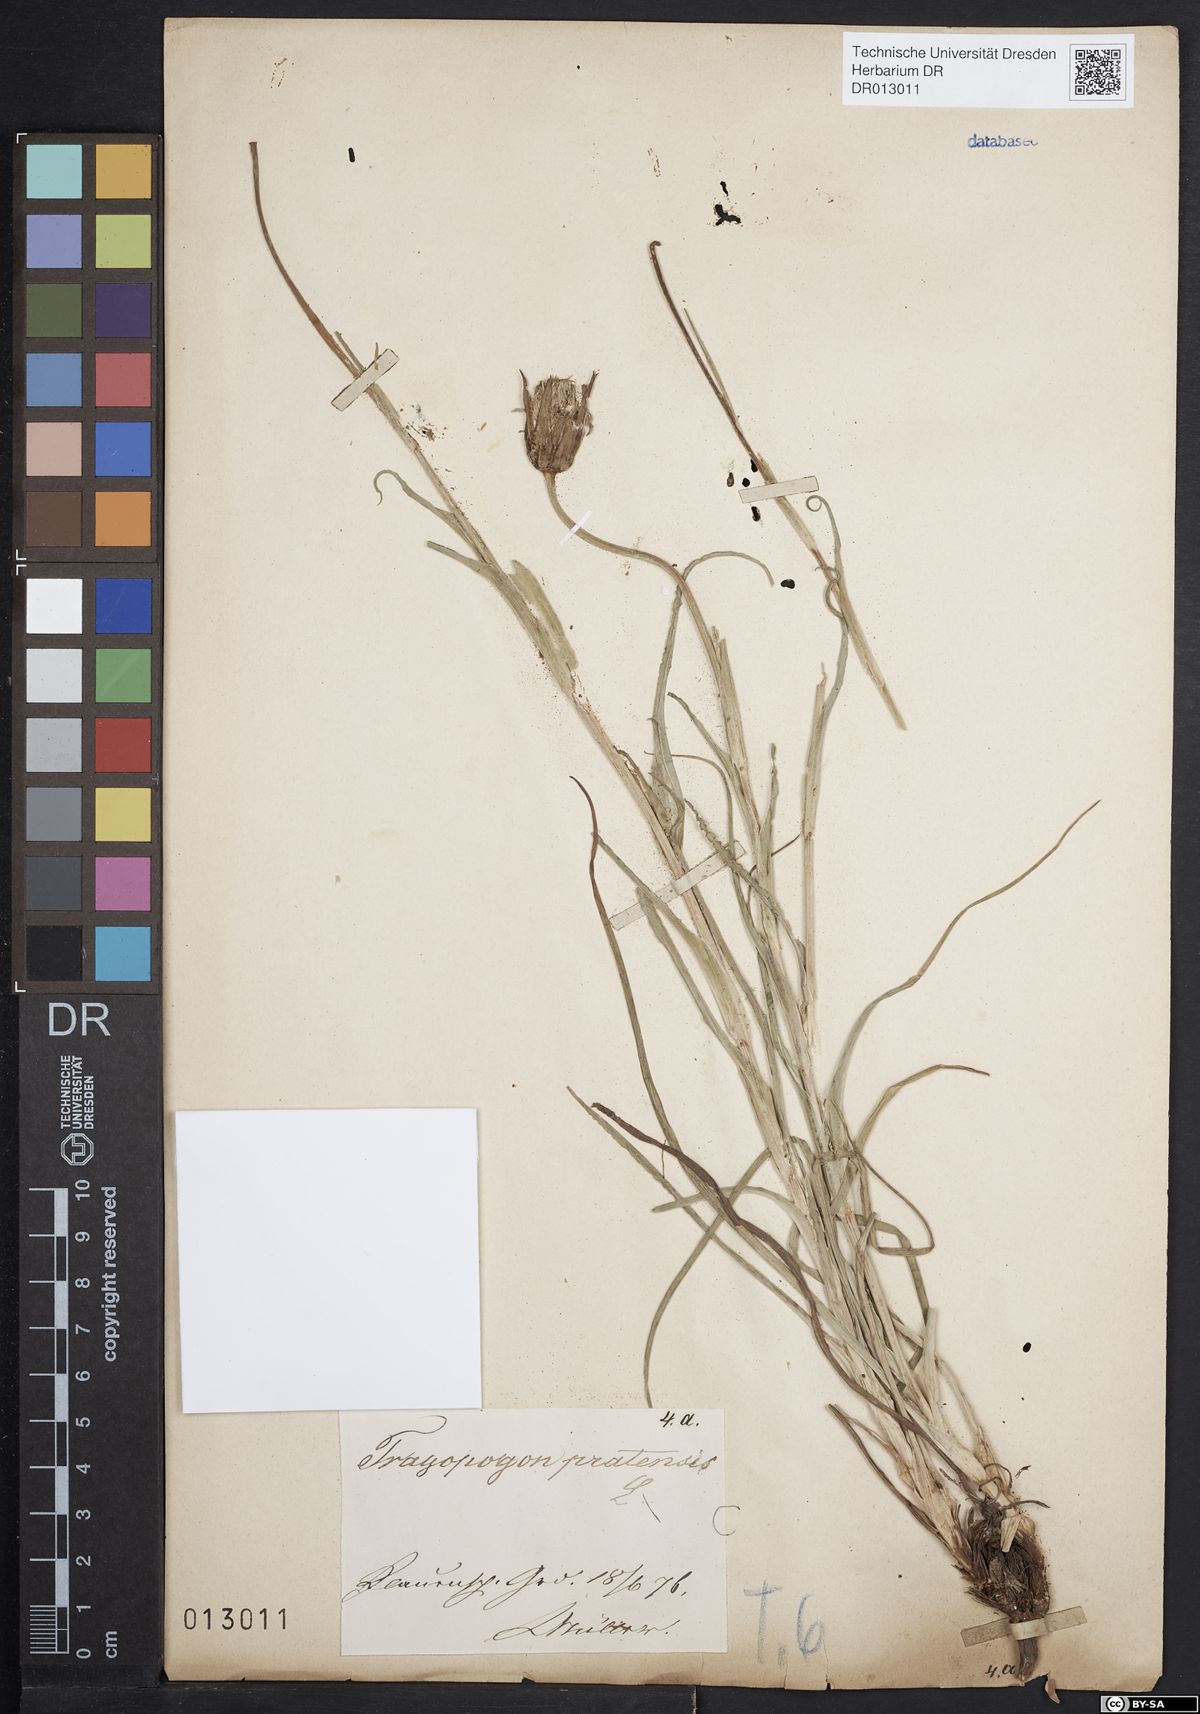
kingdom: Plantae
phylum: Tracheophyta
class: Magnoliopsida
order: Asterales
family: Asteraceae
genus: Tragopogon
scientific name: Tragopogon pratensis
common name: Goat's-beard
